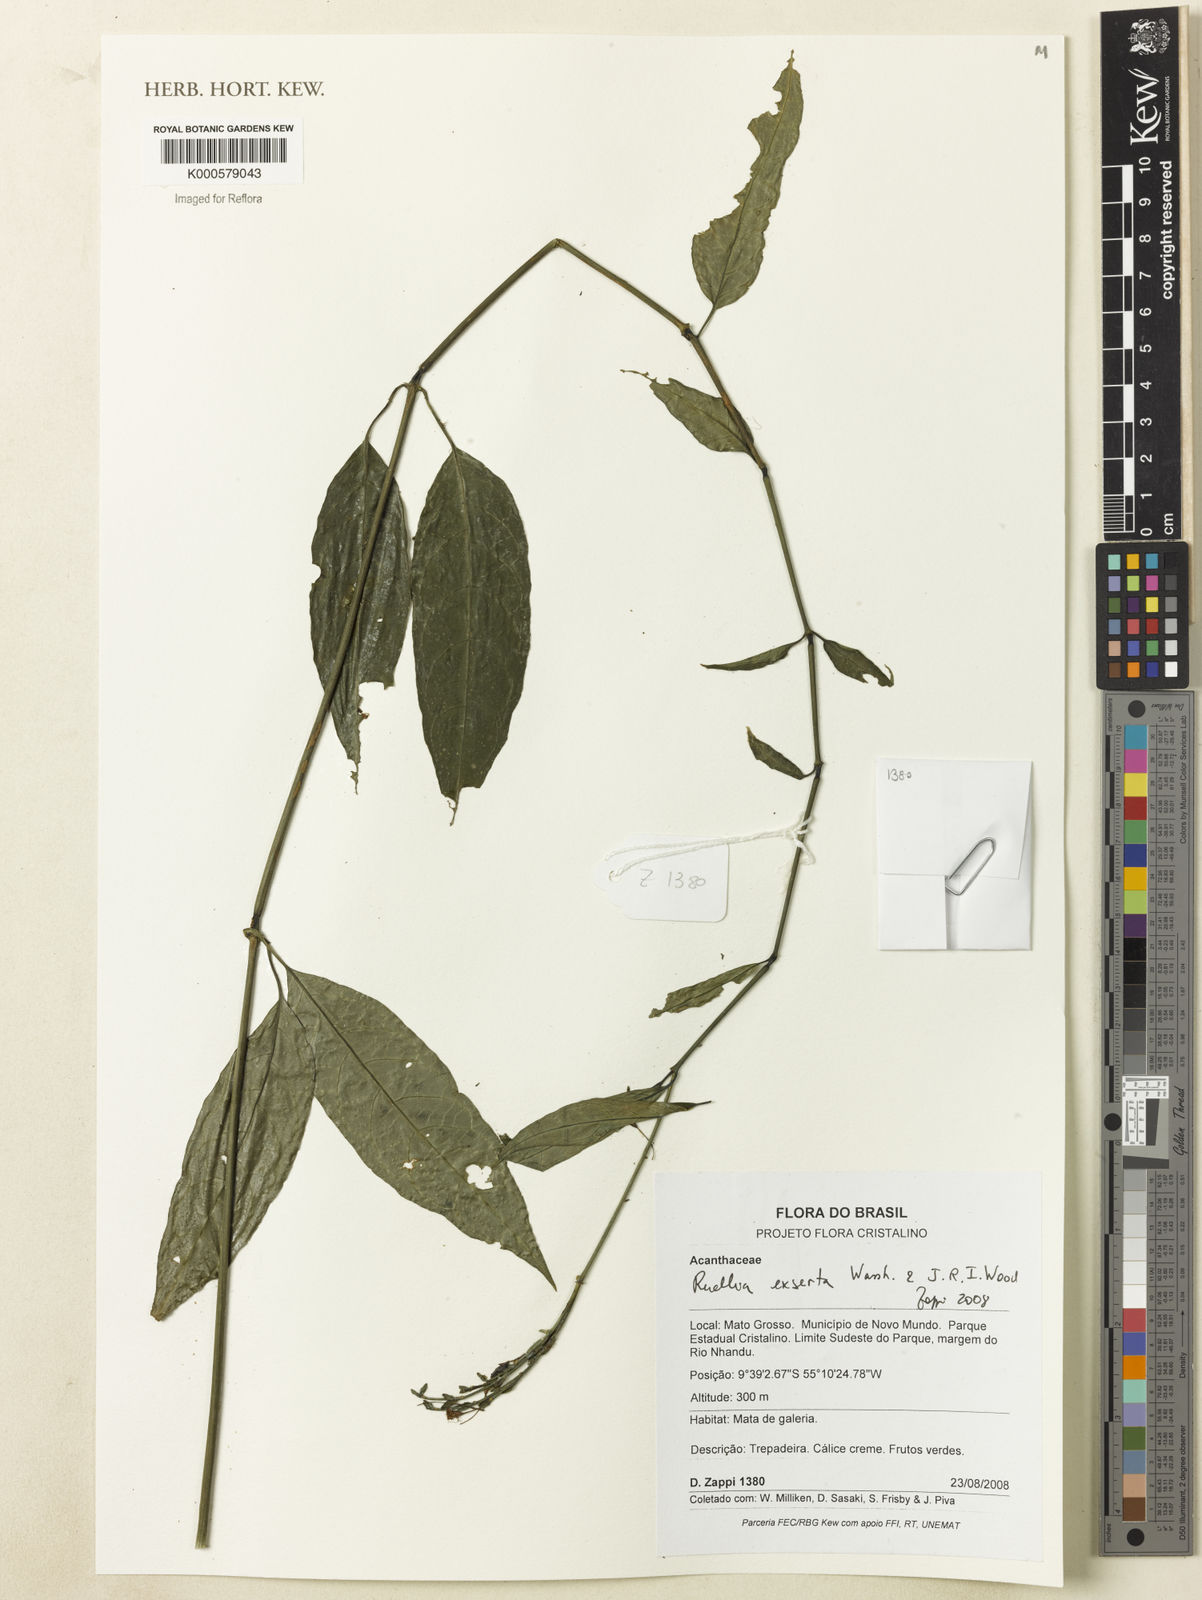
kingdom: Plantae
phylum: Tracheophyta
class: Magnoliopsida
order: Lamiales
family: Acanthaceae
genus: Ruellia
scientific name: Ruellia exserta
